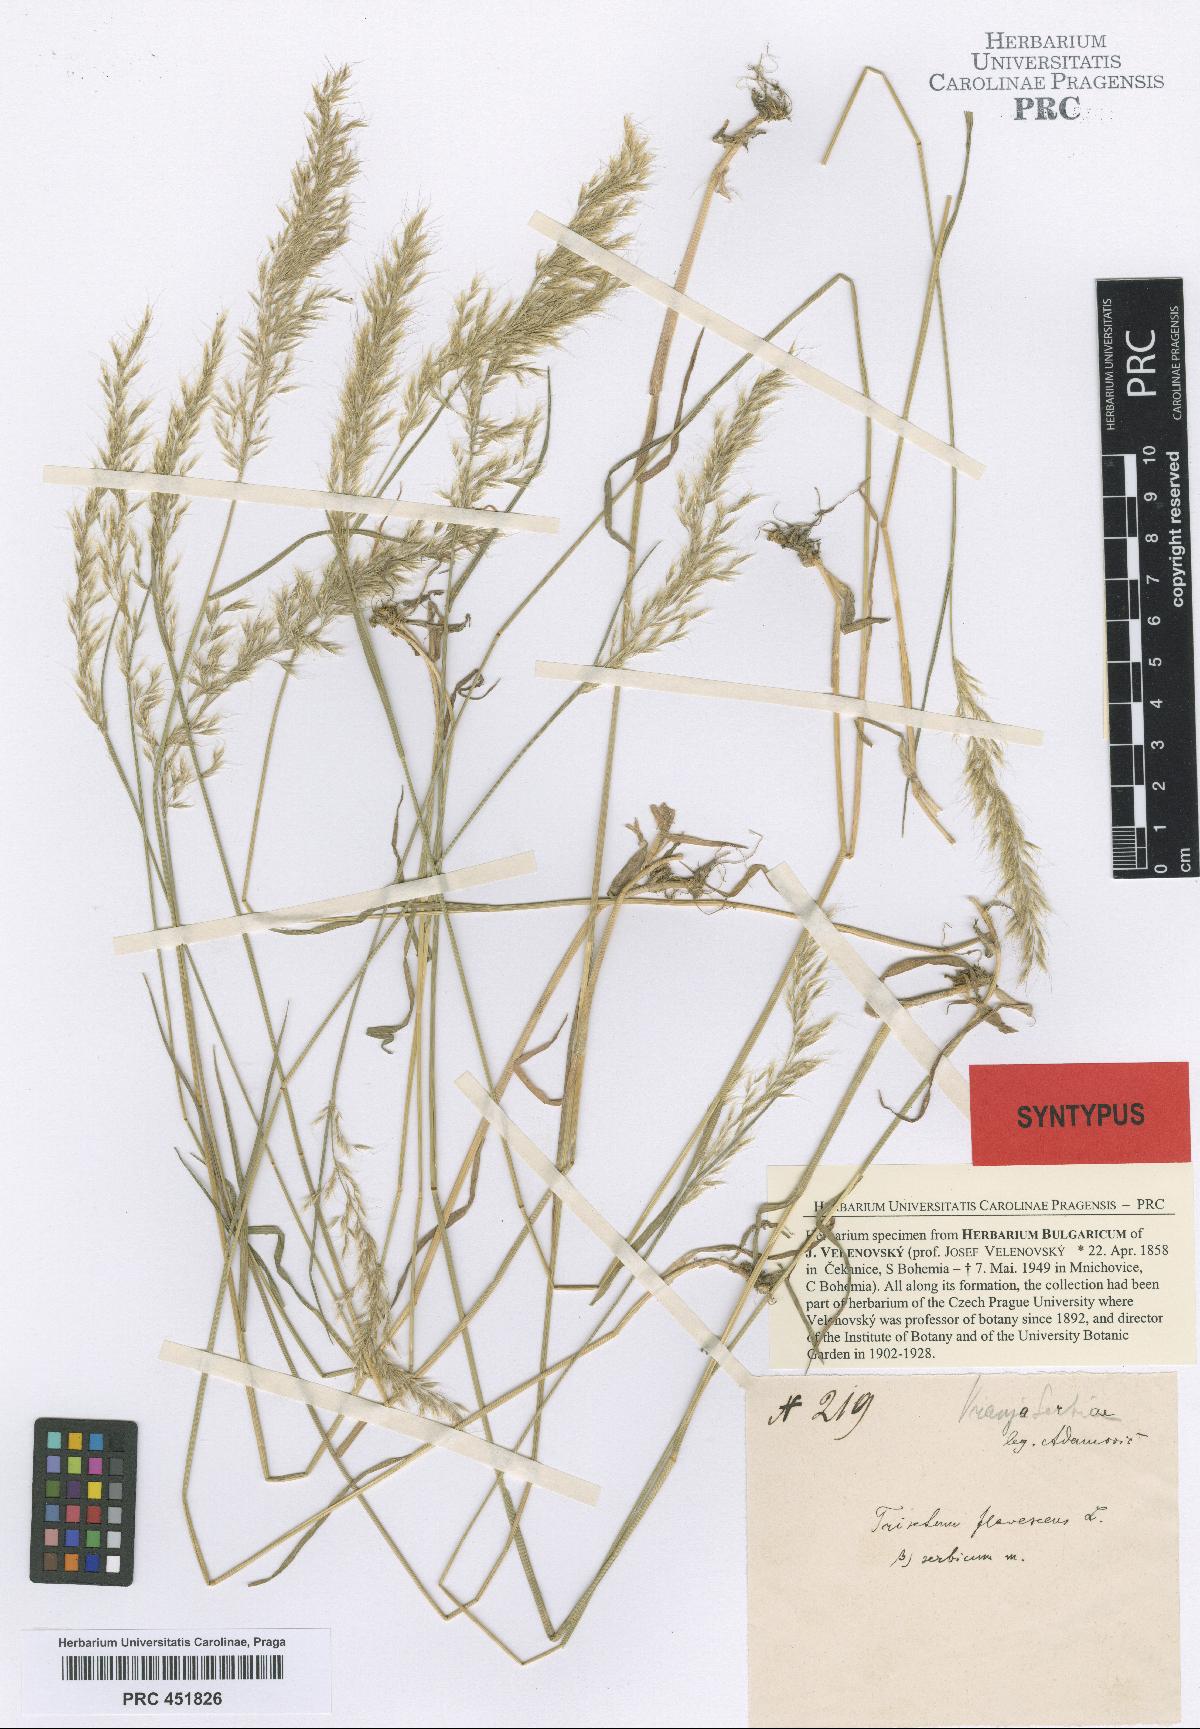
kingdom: Plantae
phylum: Tracheophyta
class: Liliopsida
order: Poales
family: Poaceae
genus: Trisetum
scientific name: Trisetum flavescens
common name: Yellow oat-grass
